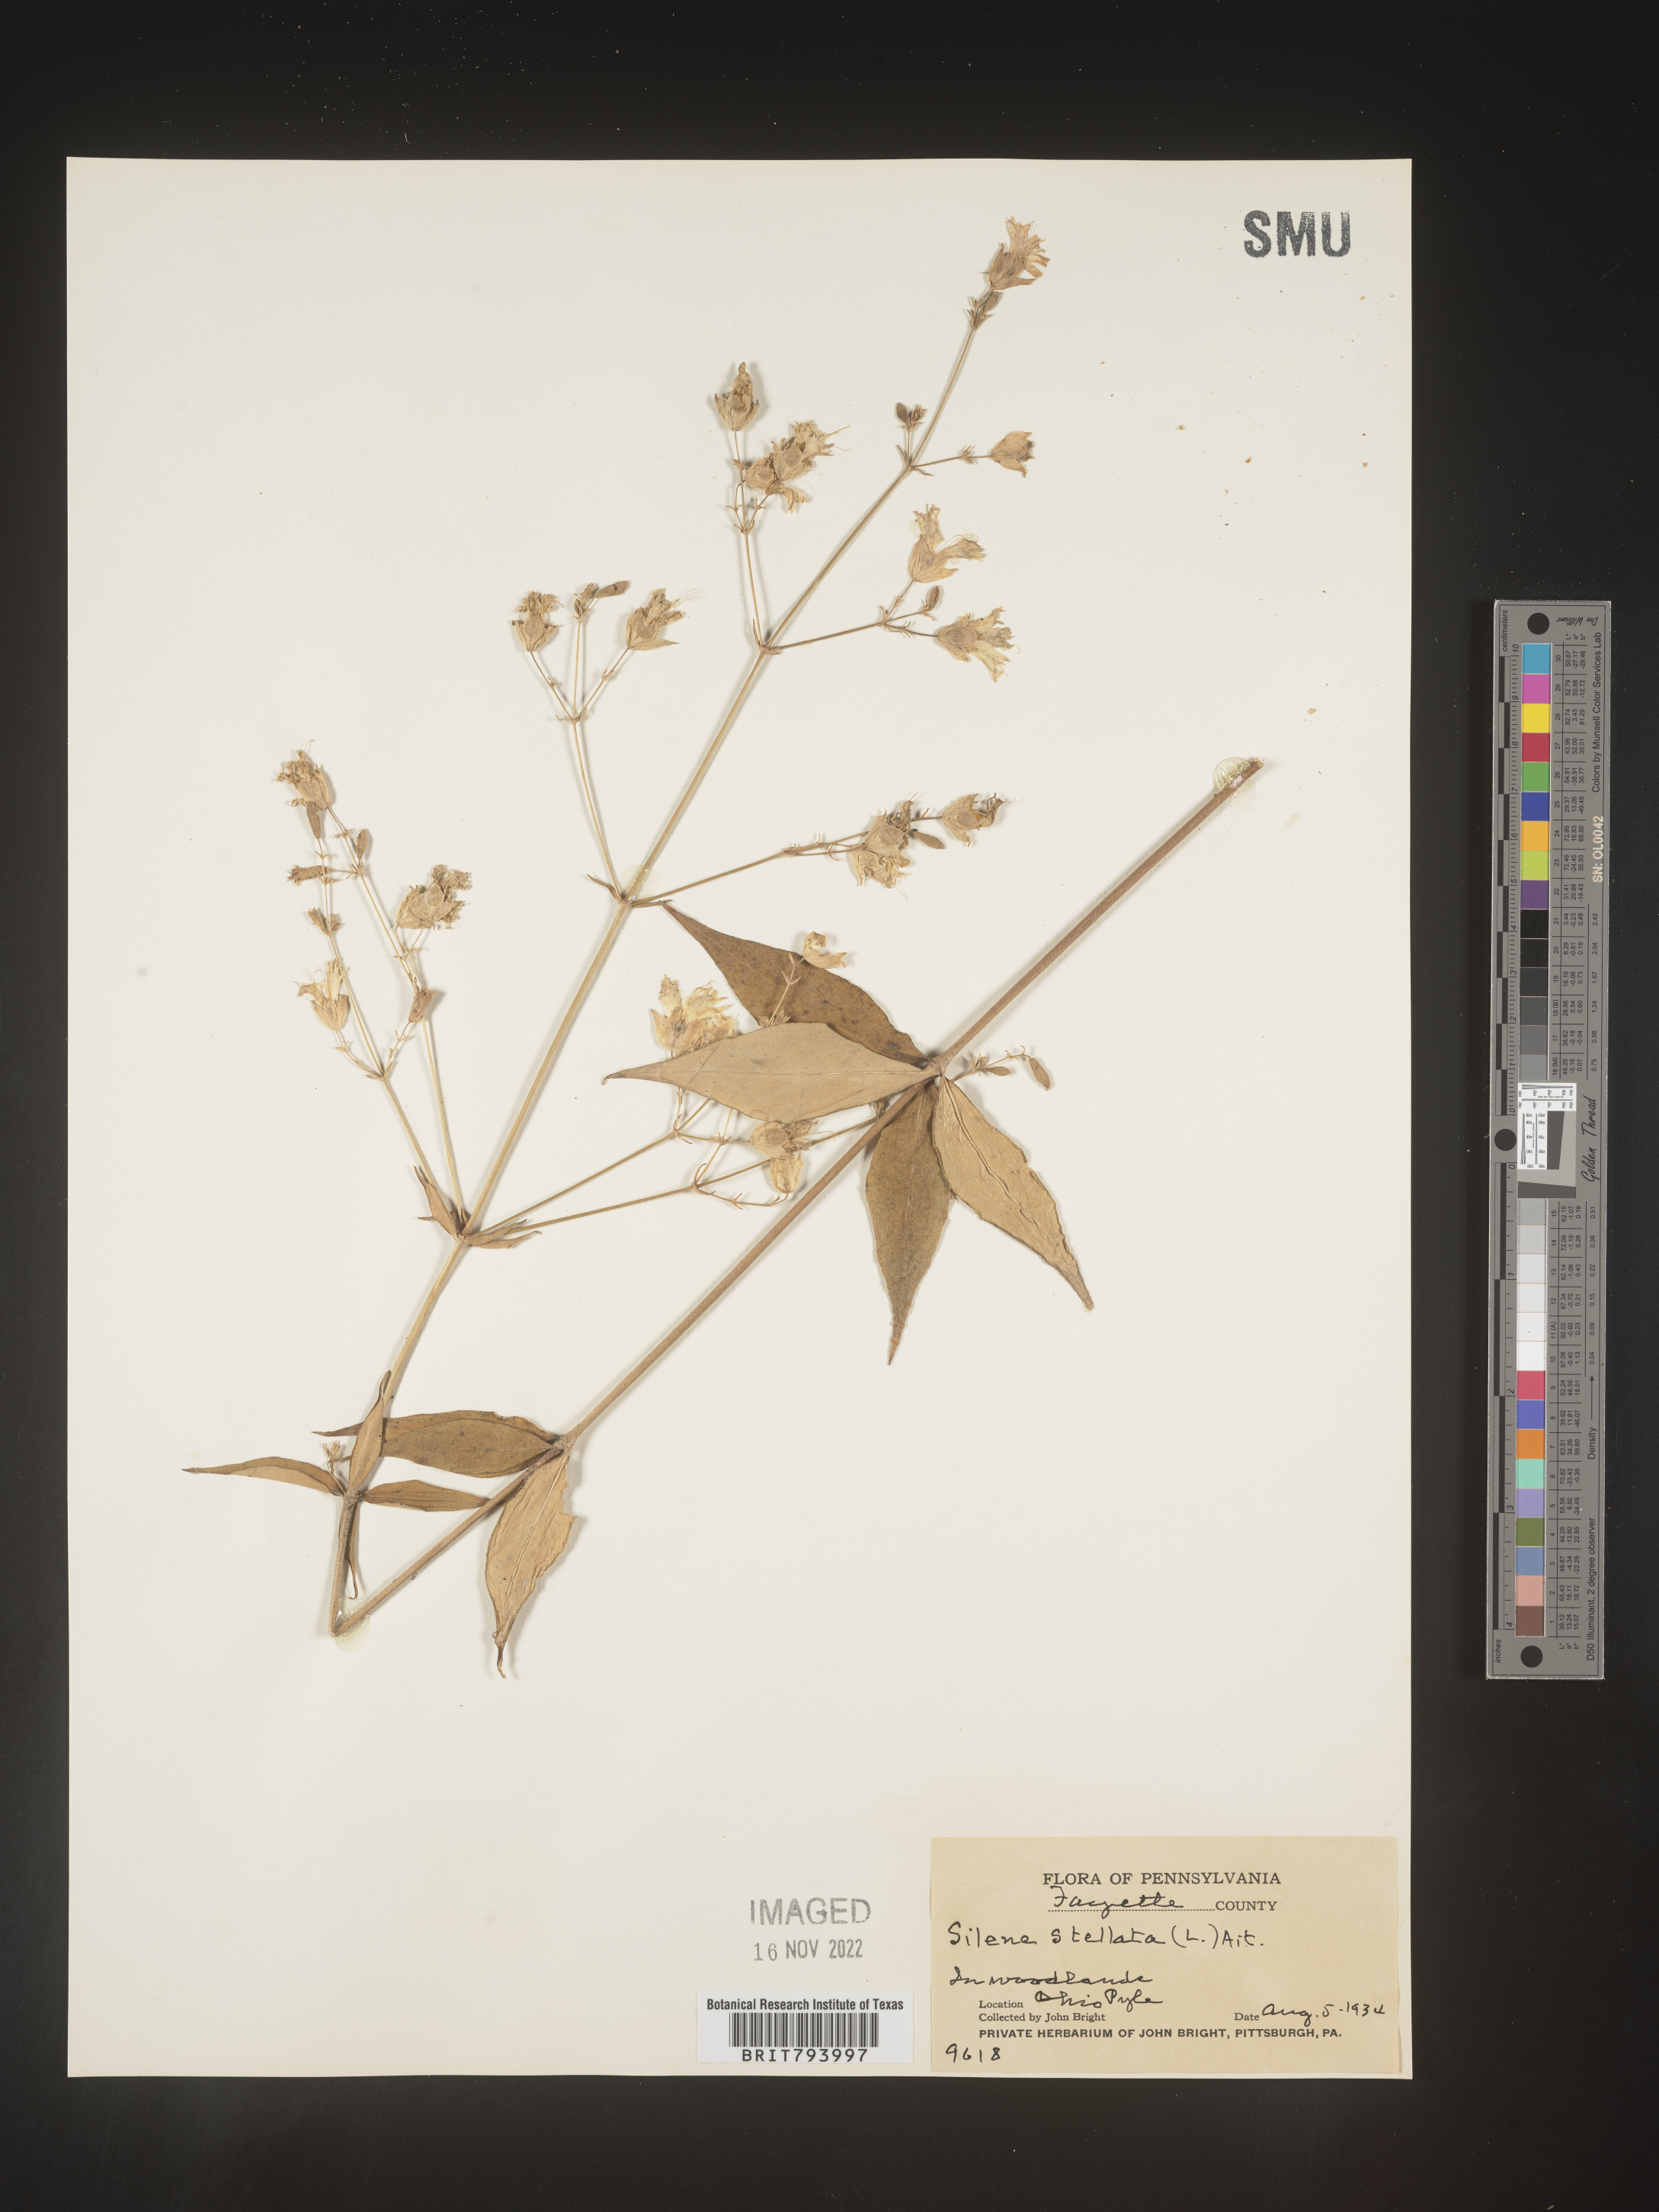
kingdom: Plantae
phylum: Tracheophyta
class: Magnoliopsida
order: Caryophyllales
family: Caryophyllaceae
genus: Silene
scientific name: Silene stellata
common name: Starry campion
